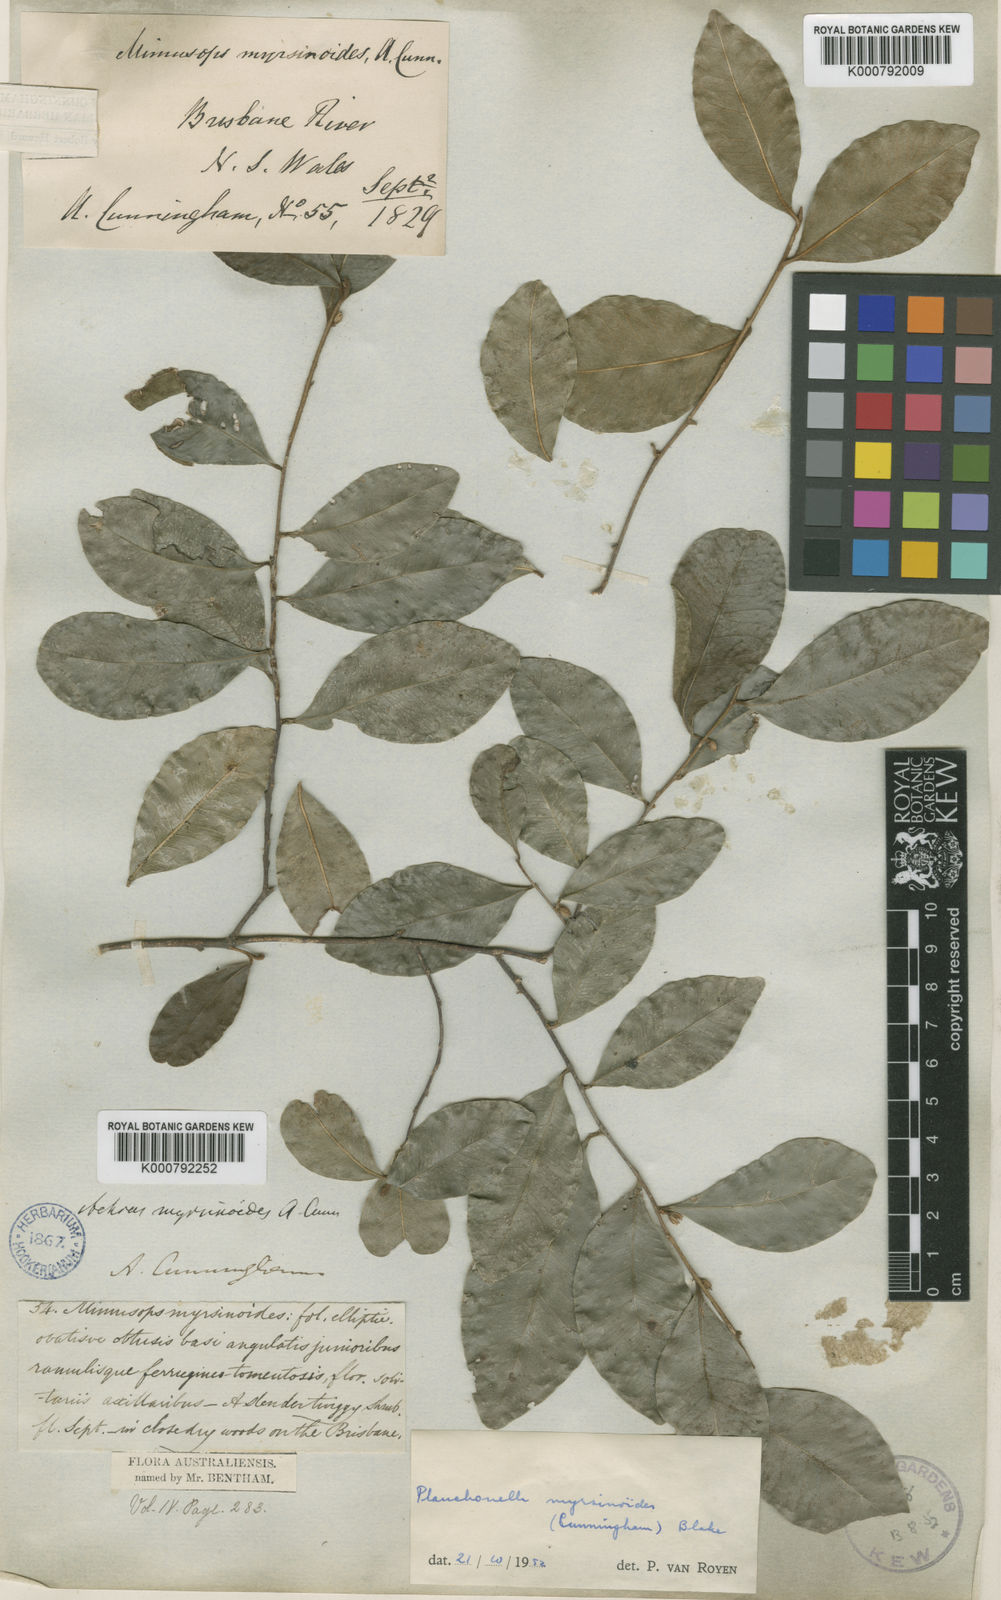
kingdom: Plantae
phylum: Tracheophyta
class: Magnoliopsida
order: Ericales
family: Sapotaceae
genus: Planchonella
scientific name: Planchonella myrsinoides
